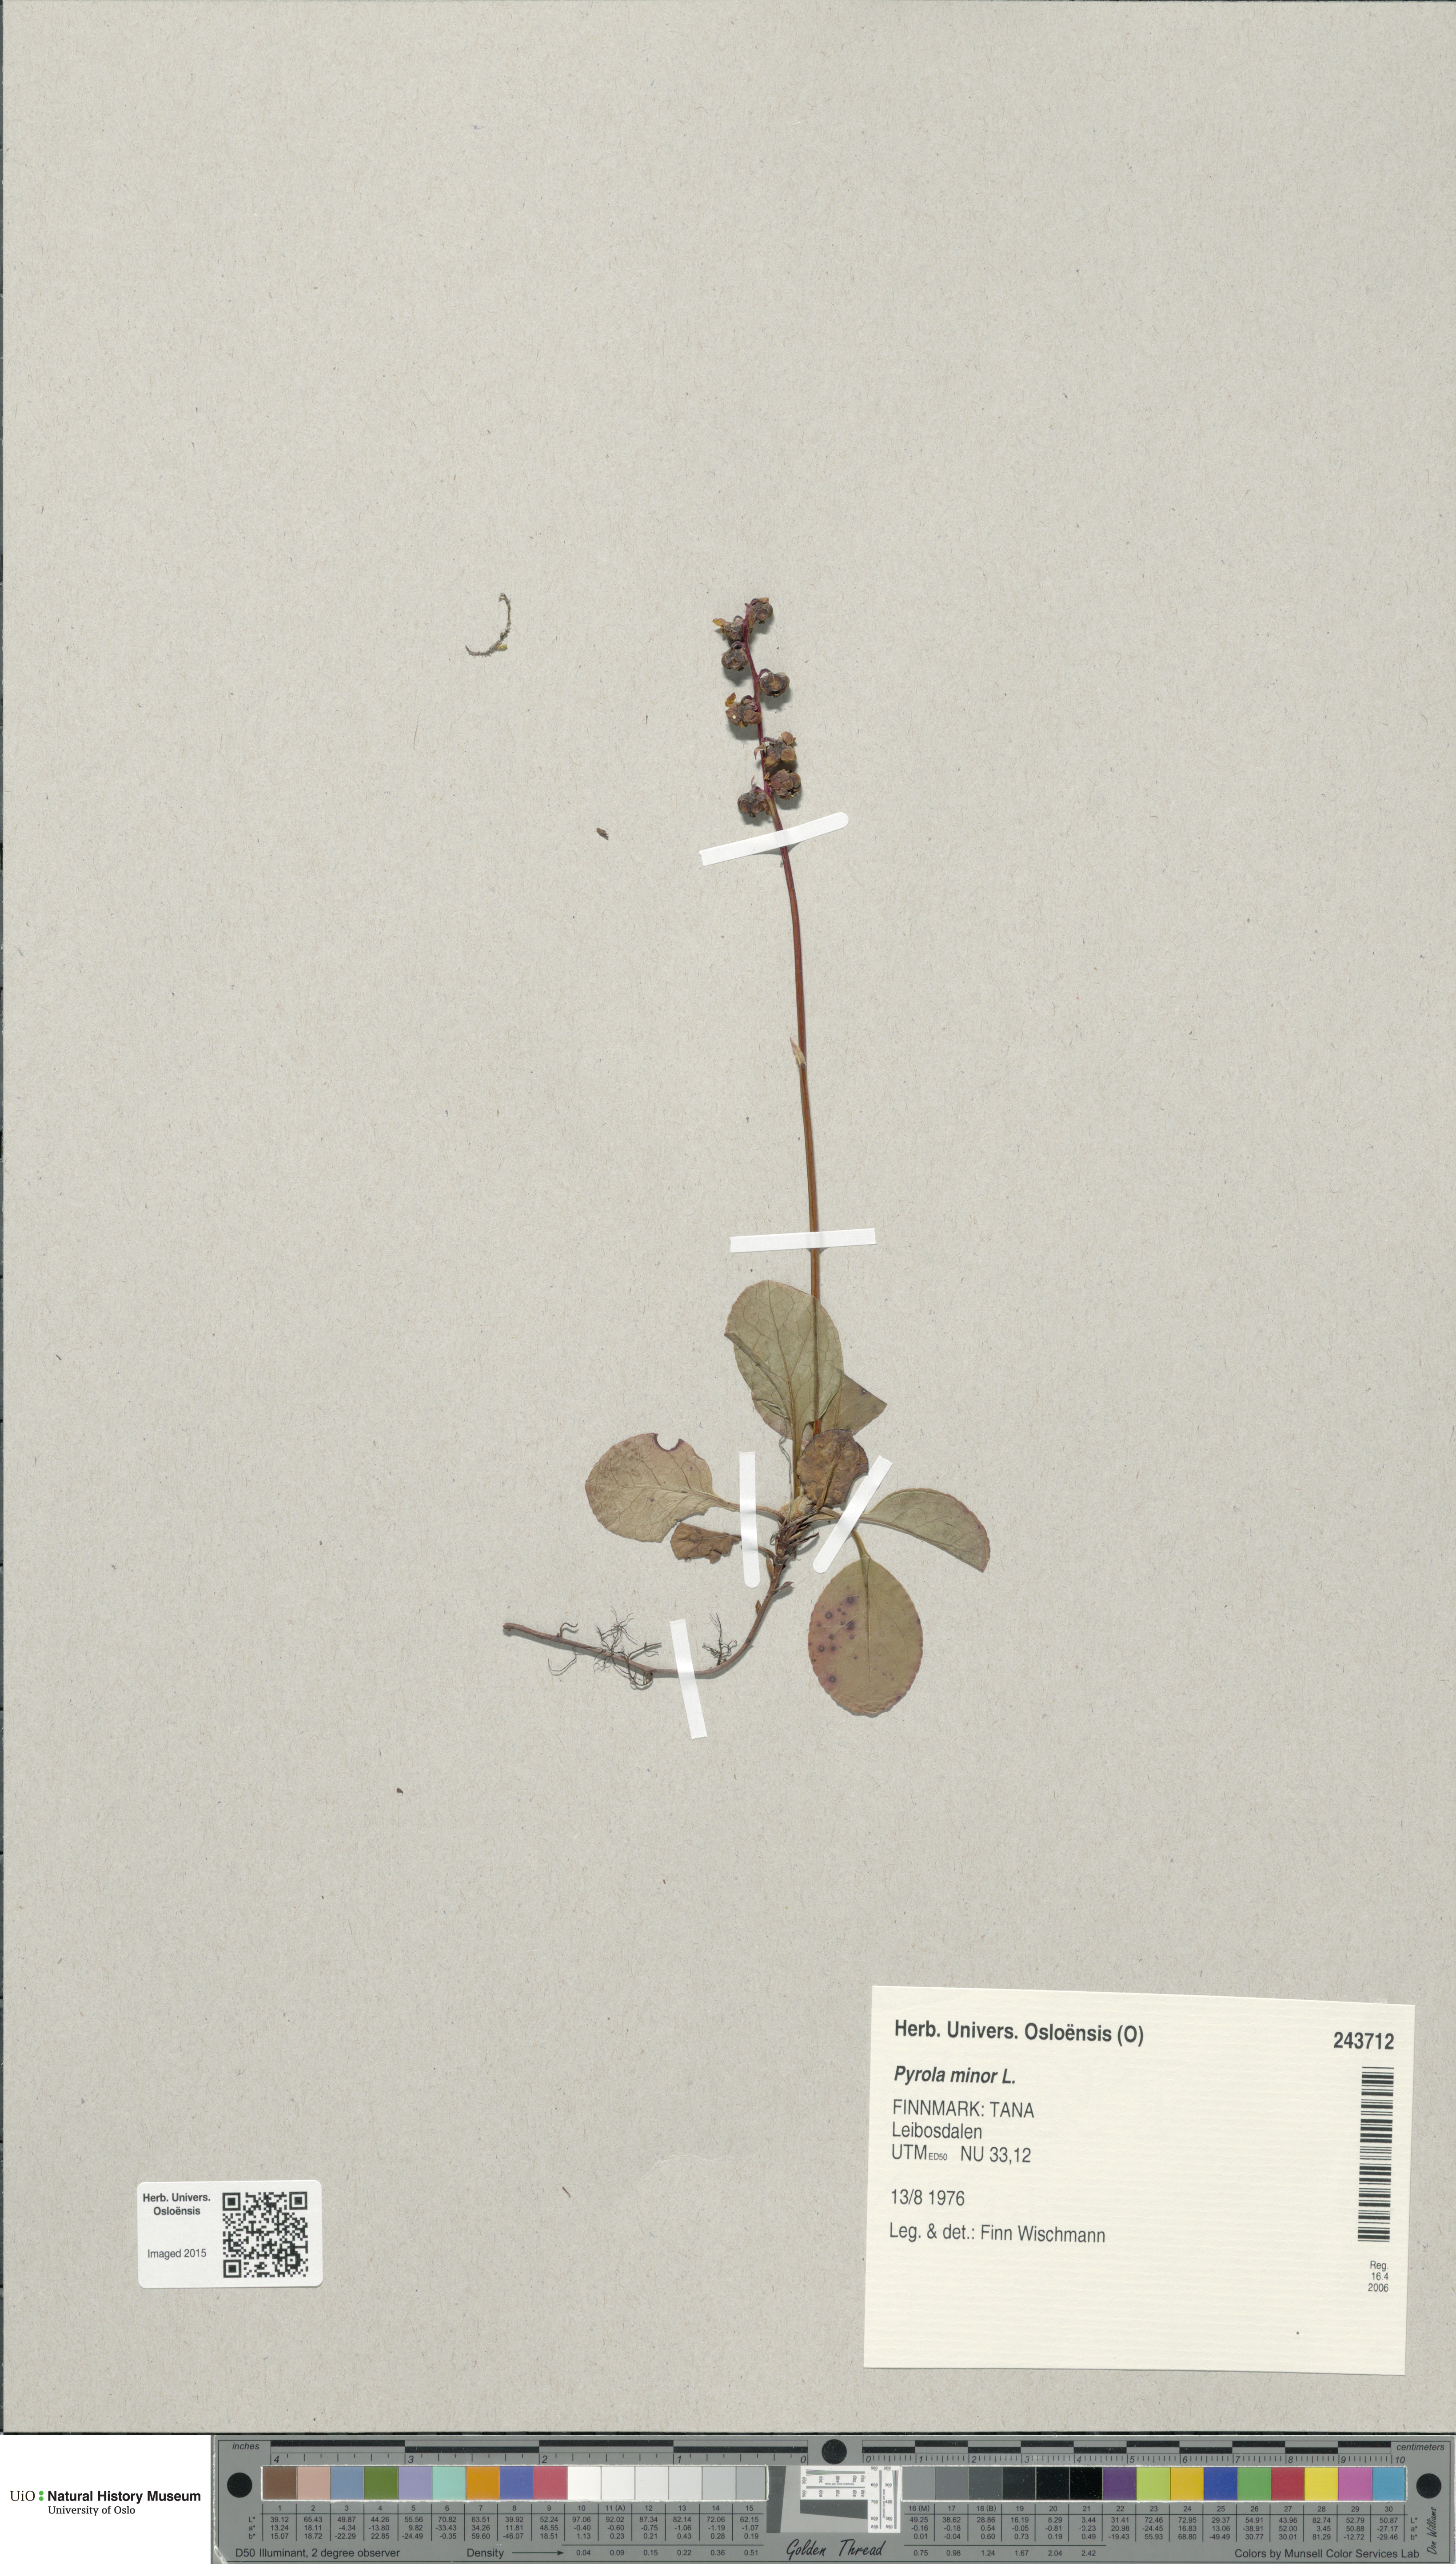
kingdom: Plantae
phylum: Tracheophyta
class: Magnoliopsida
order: Ericales
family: Ericaceae
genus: Pyrola
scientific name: Pyrola minor
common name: Common wintergreen
